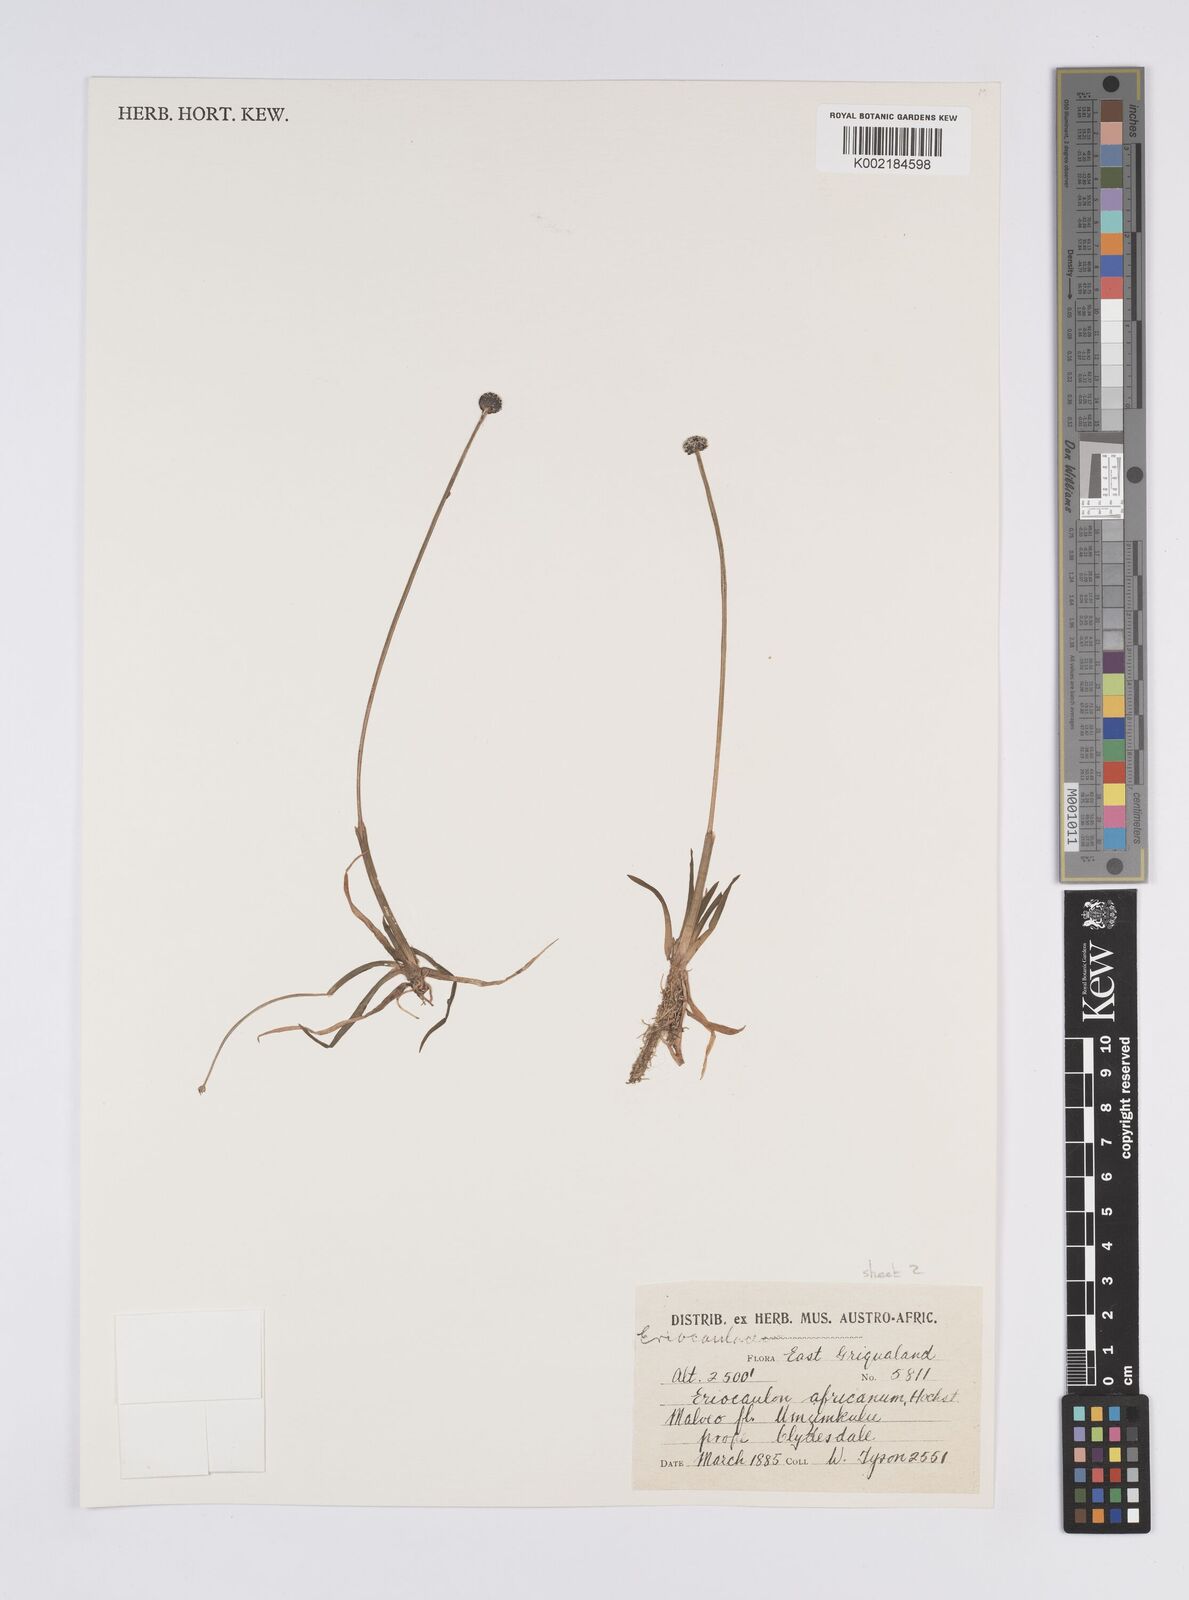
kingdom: Plantae
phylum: Tracheophyta
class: Liliopsida
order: Poales
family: Eriocaulaceae
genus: Eriocaulon
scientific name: Eriocaulon africanum
